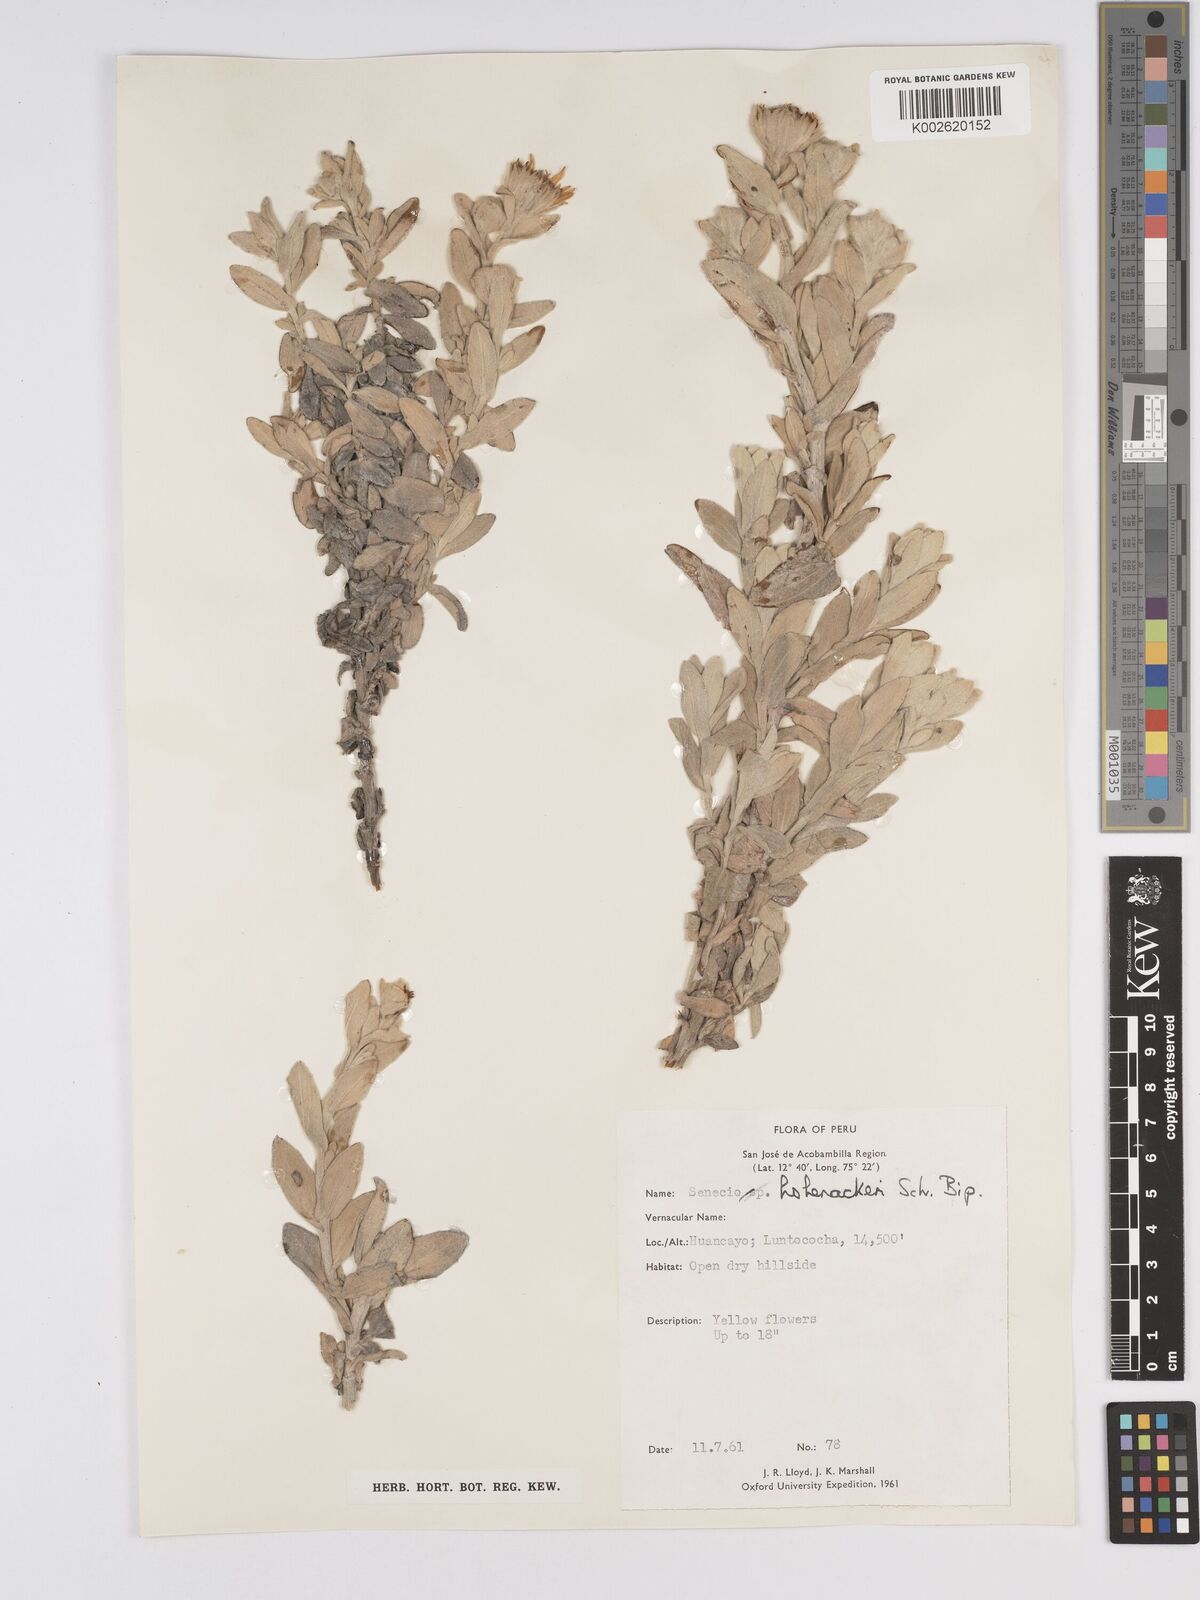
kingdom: Plantae
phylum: Tracheophyta
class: Magnoliopsida
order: Asterales
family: Asteraceae
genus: Senecio
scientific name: Senecio hohenackeri
